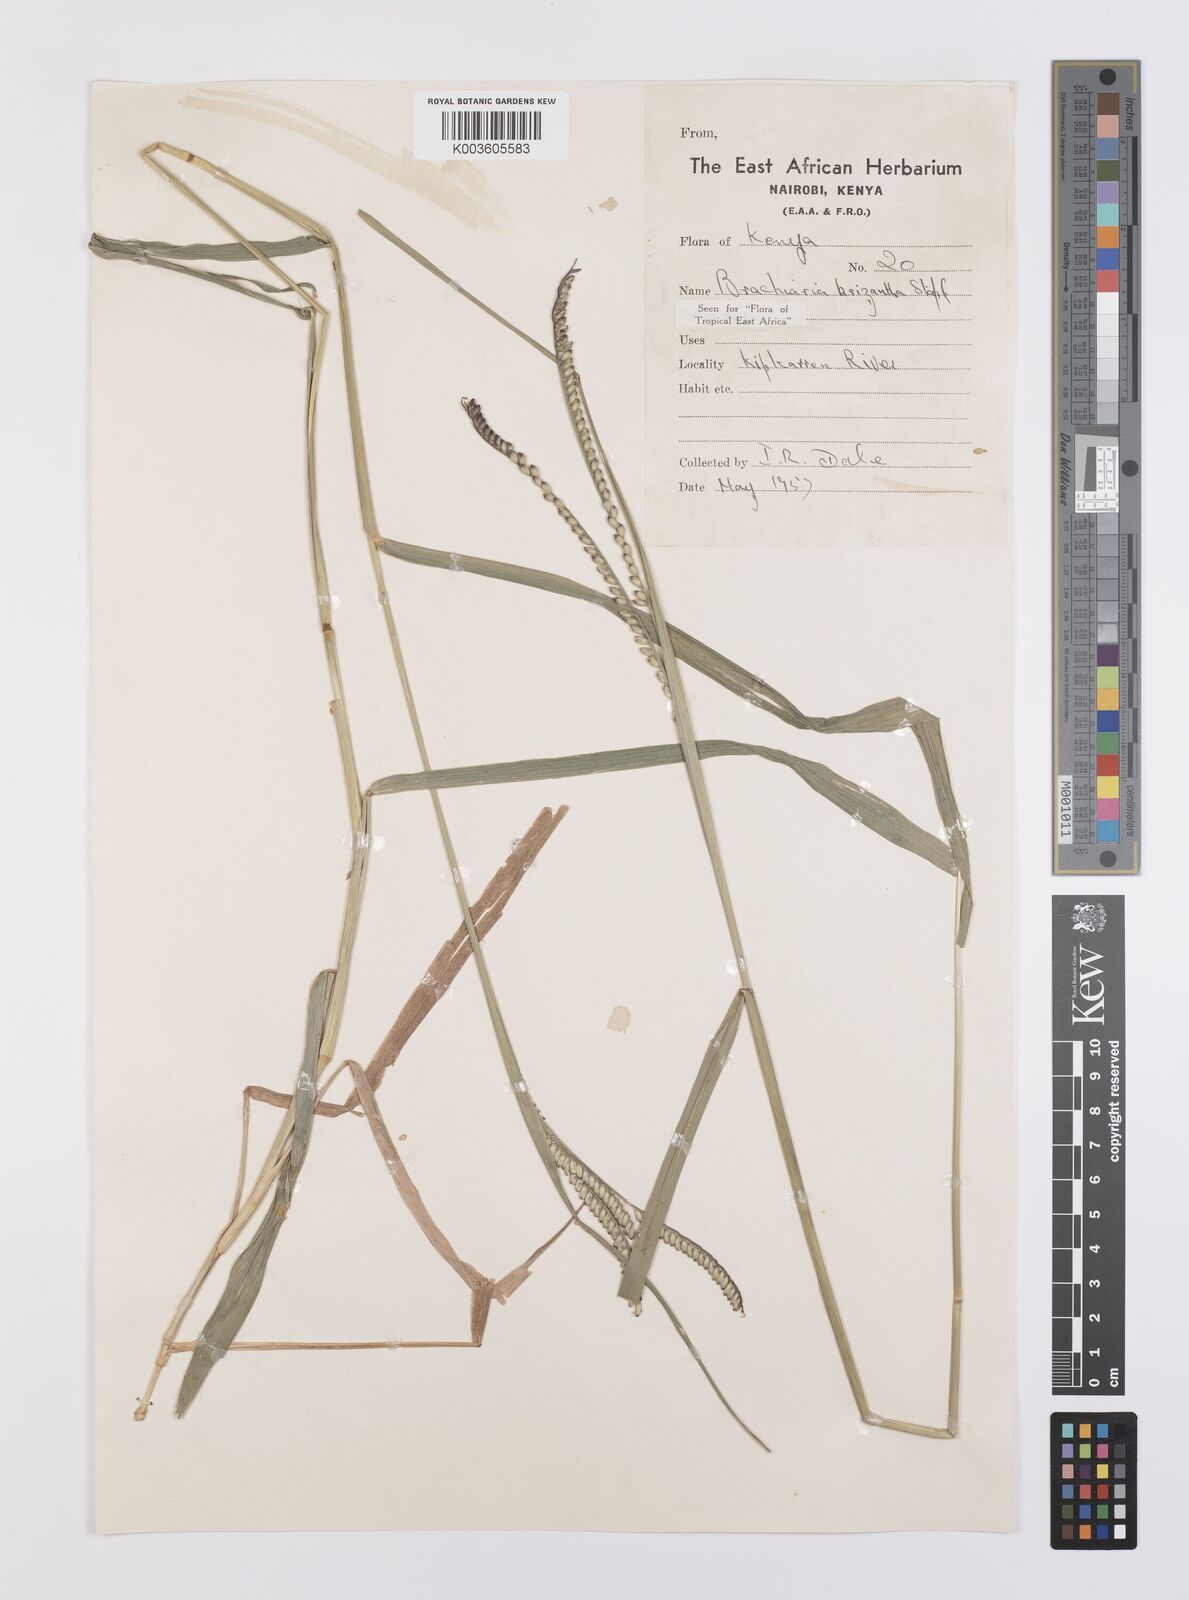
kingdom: Plantae
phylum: Tracheophyta
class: Liliopsida
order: Poales
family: Poaceae
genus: Urochloa
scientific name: Urochloa brizantha
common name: Palisade signalgrass
